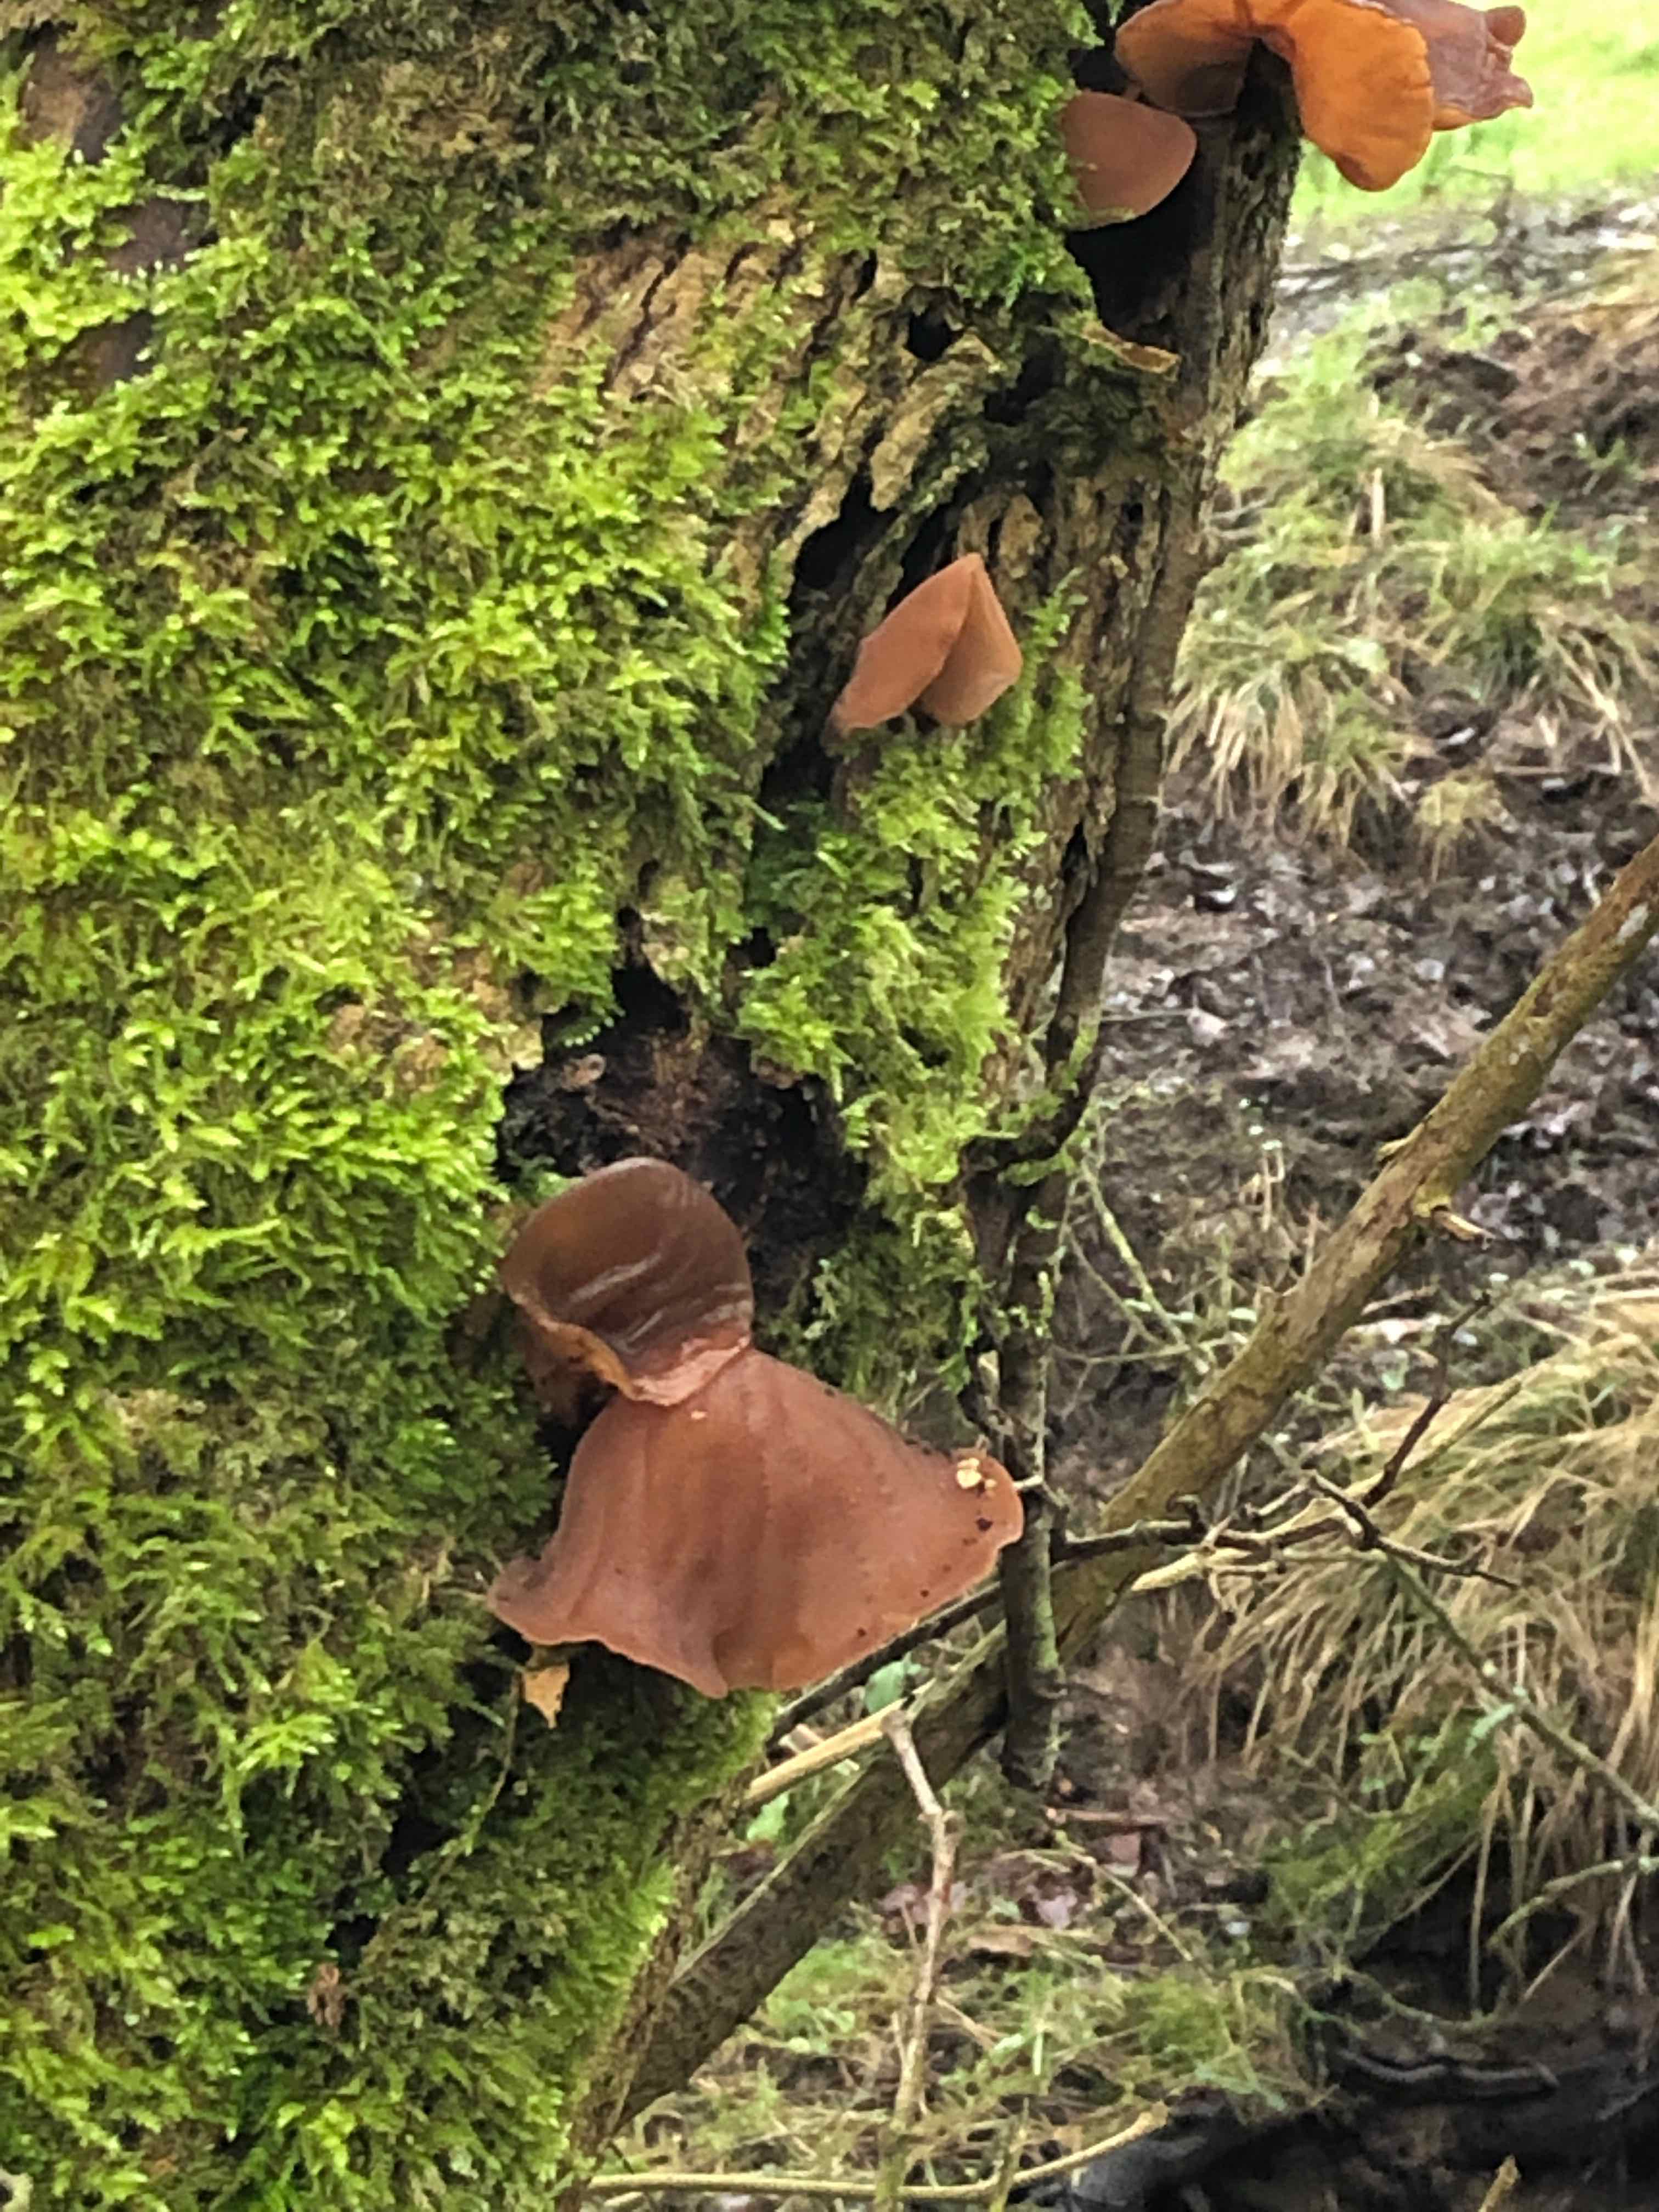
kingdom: Fungi
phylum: Basidiomycota
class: Agaricomycetes
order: Auriculariales
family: Auriculariaceae
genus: Auricularia
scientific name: Auricularia auricula-judae
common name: almindelig judasøre
